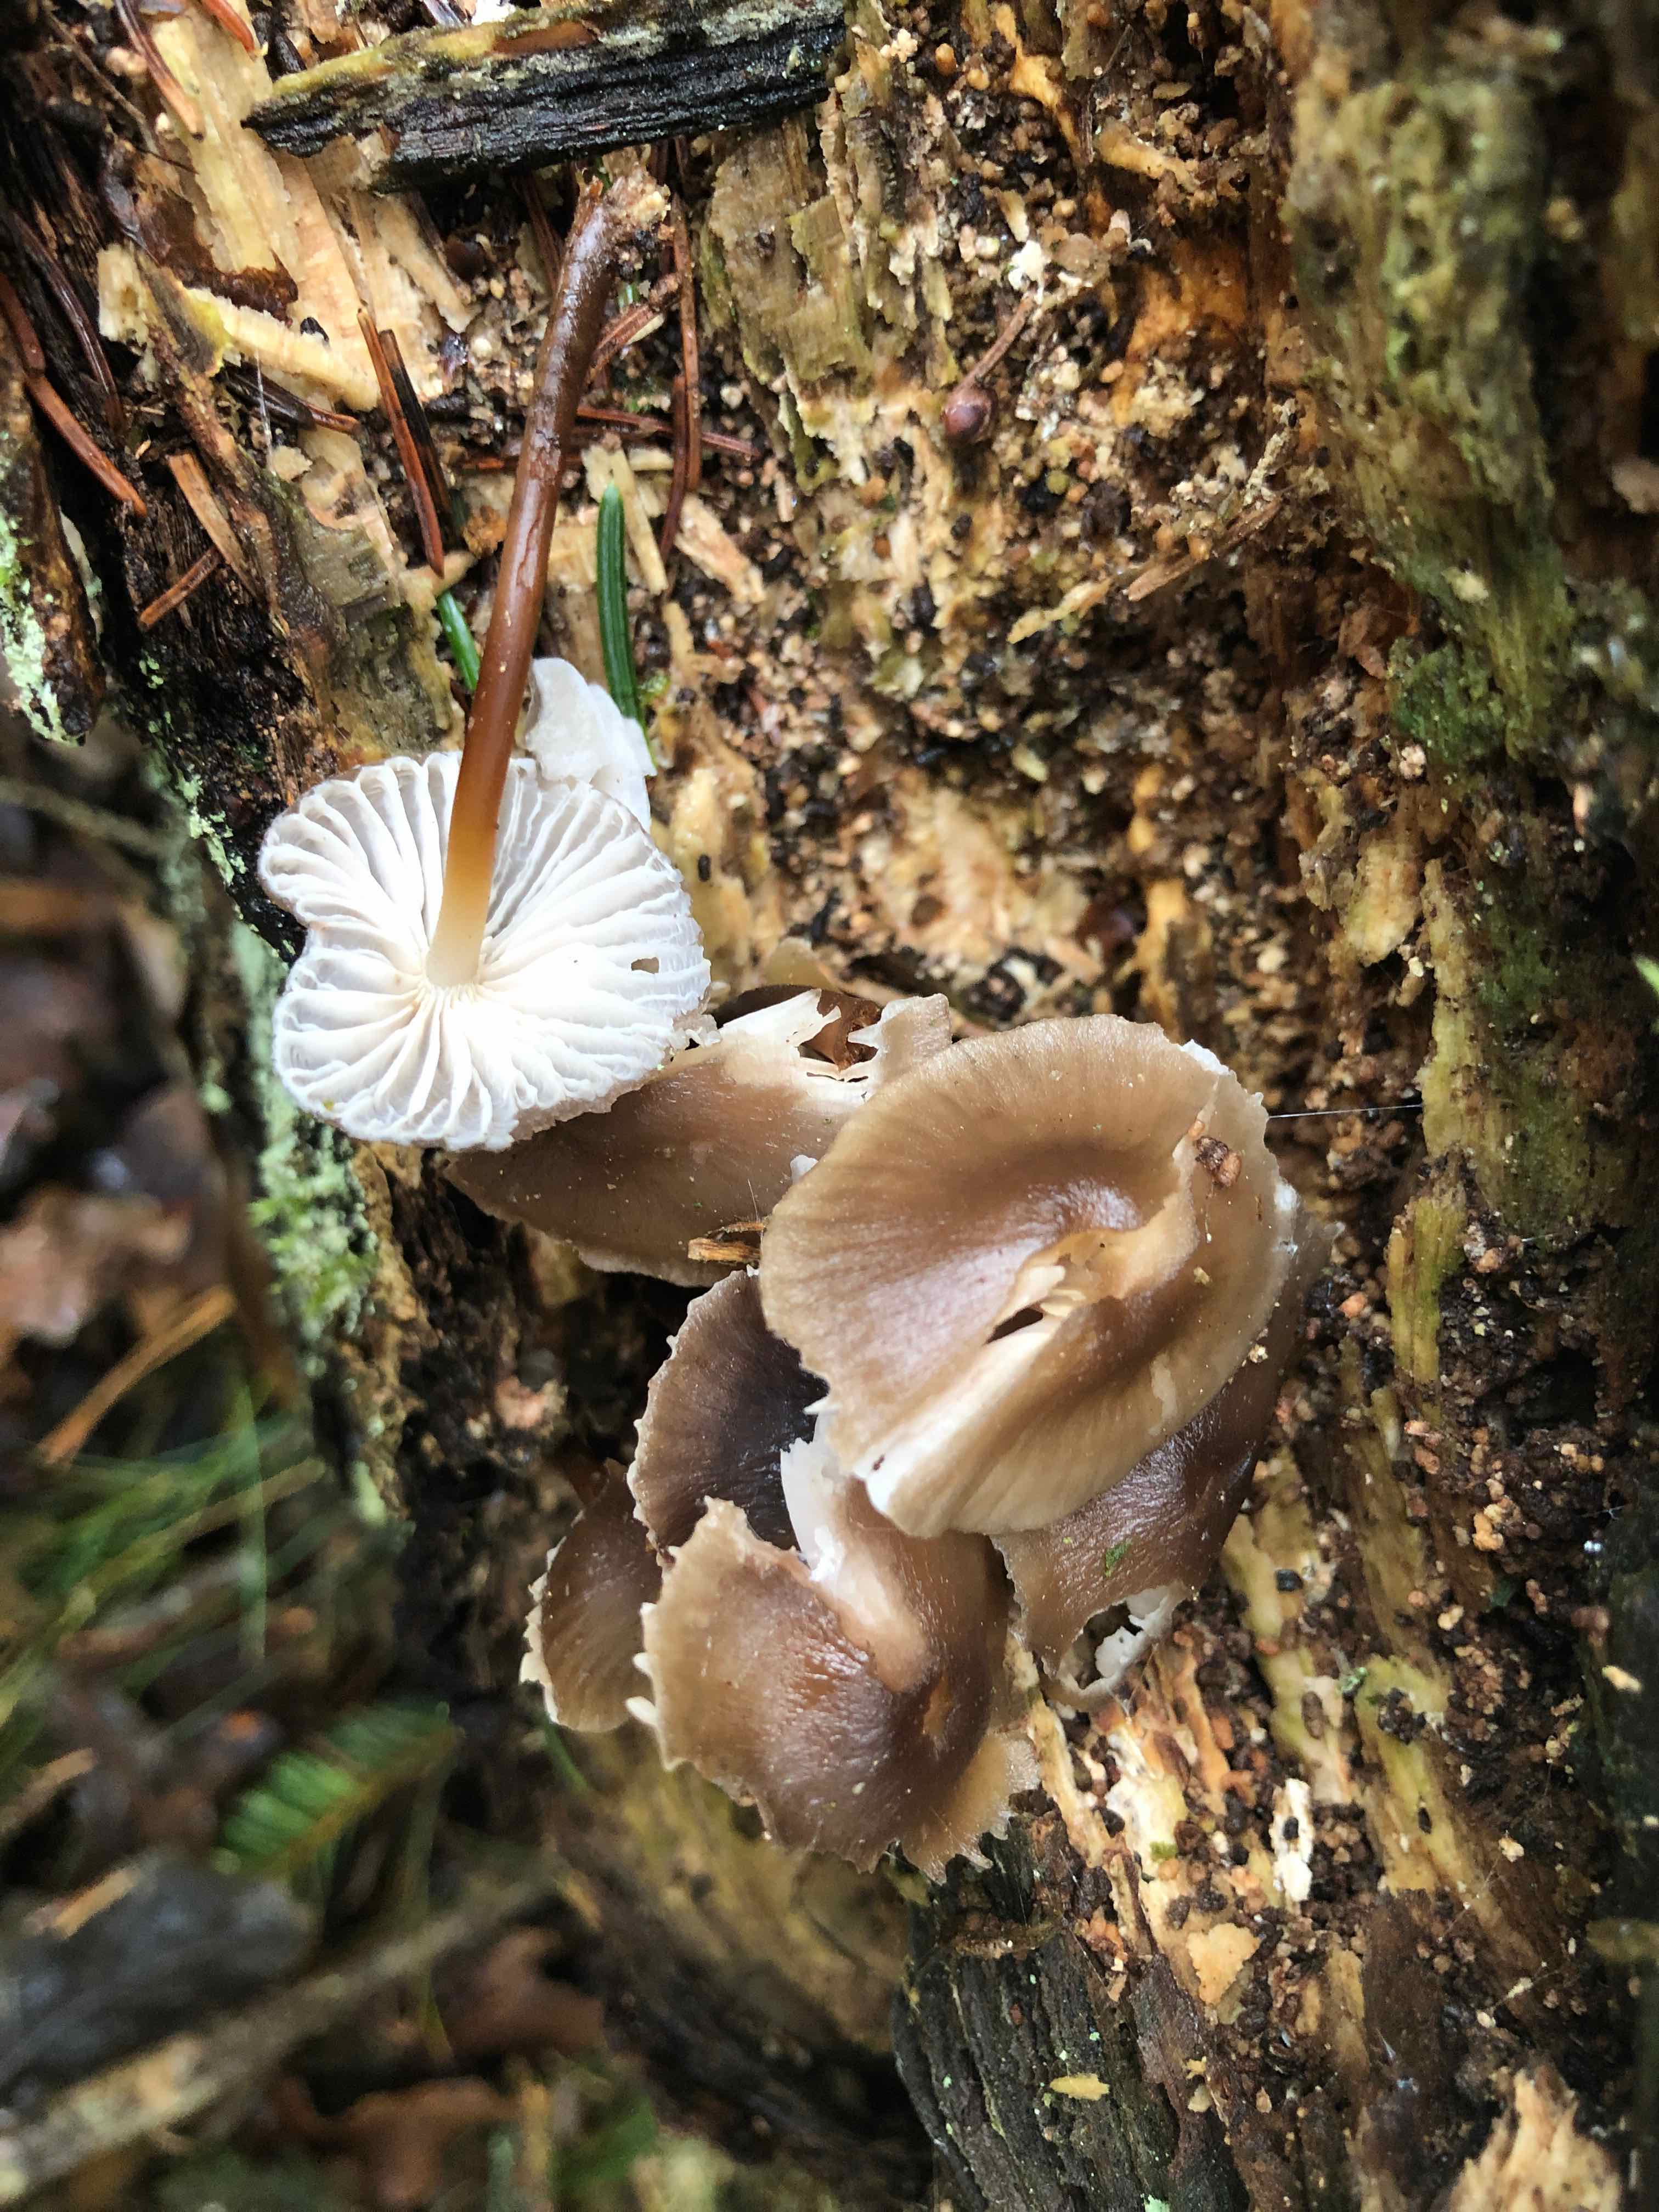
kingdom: Fungi
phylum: Basidiomycota
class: Agaricomycetes
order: Agaricales
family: Mycenaceae
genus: Mycena
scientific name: Mycena inclinata
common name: nikkende huesvamp
